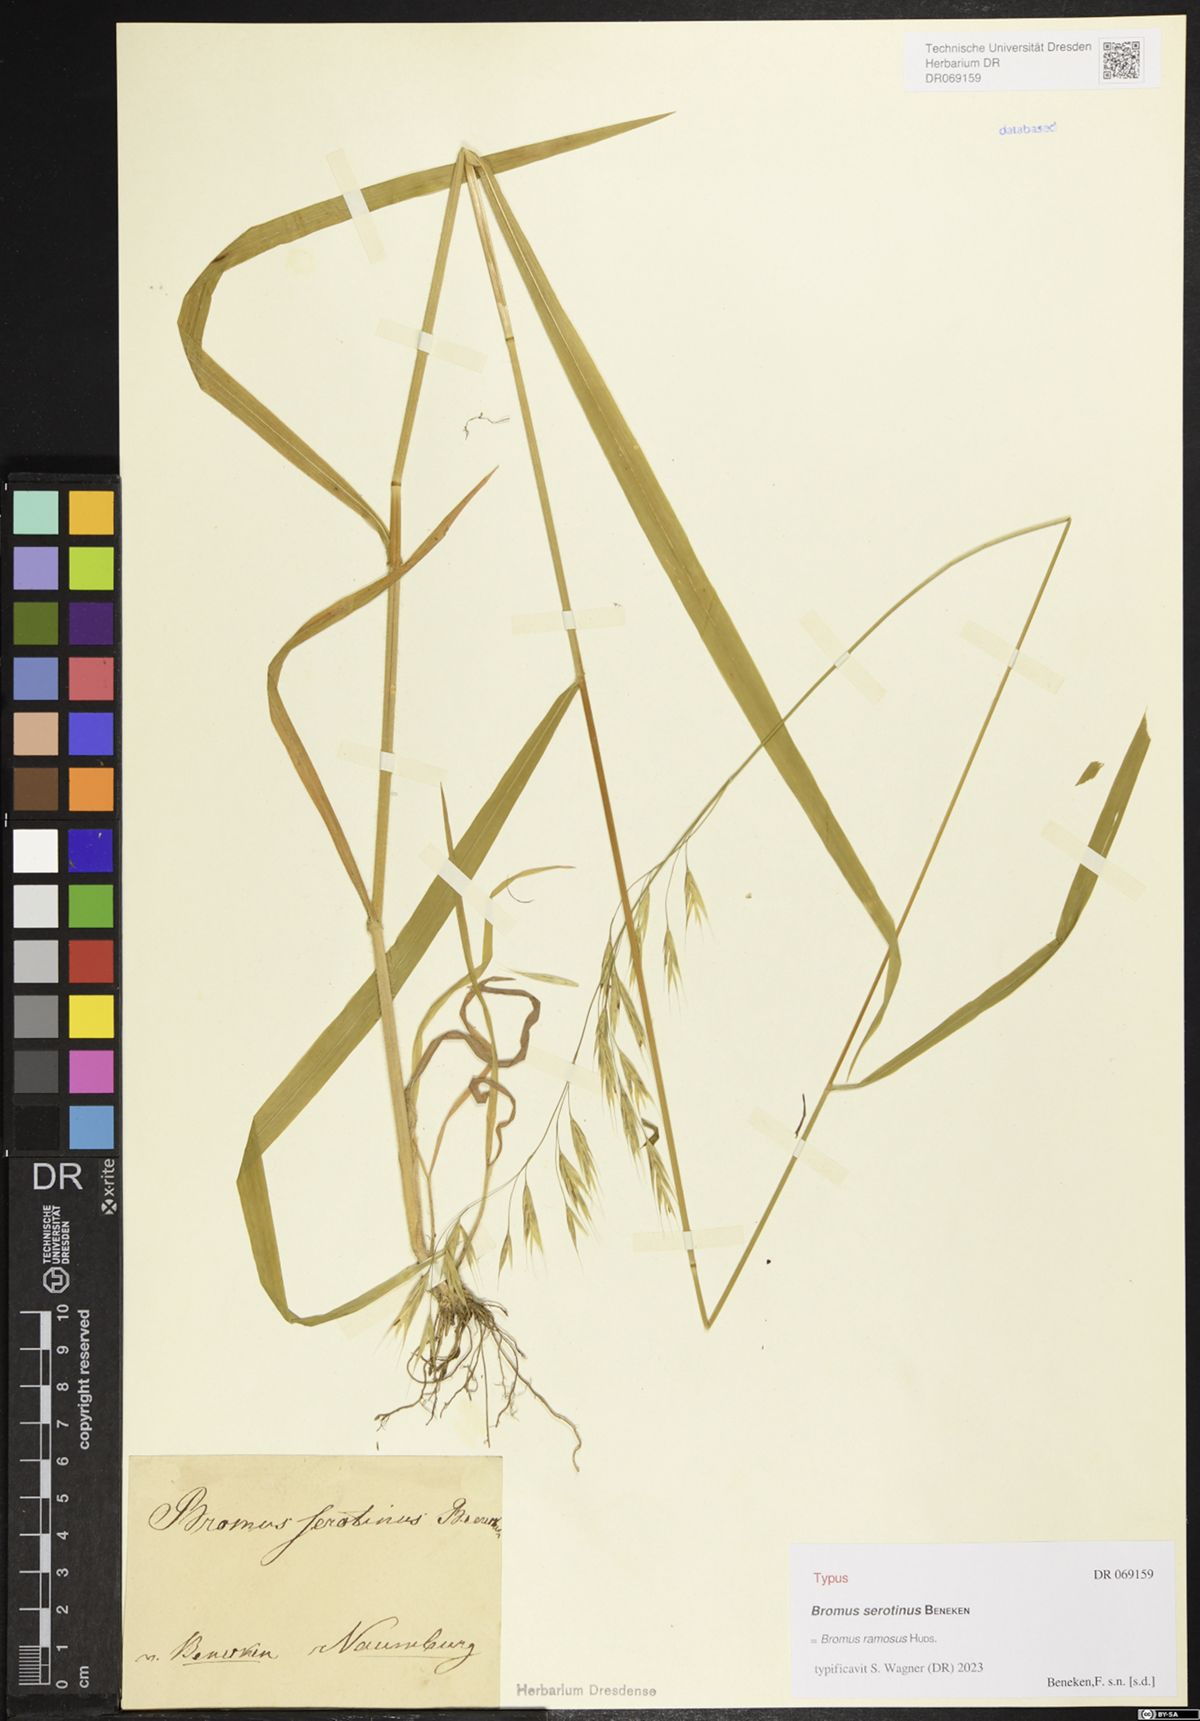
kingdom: Plantae
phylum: Tracheophyta
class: Liliopsida
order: Poales
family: Poaceae
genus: Bromus
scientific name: Bromus ramosus
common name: Hairy brome
